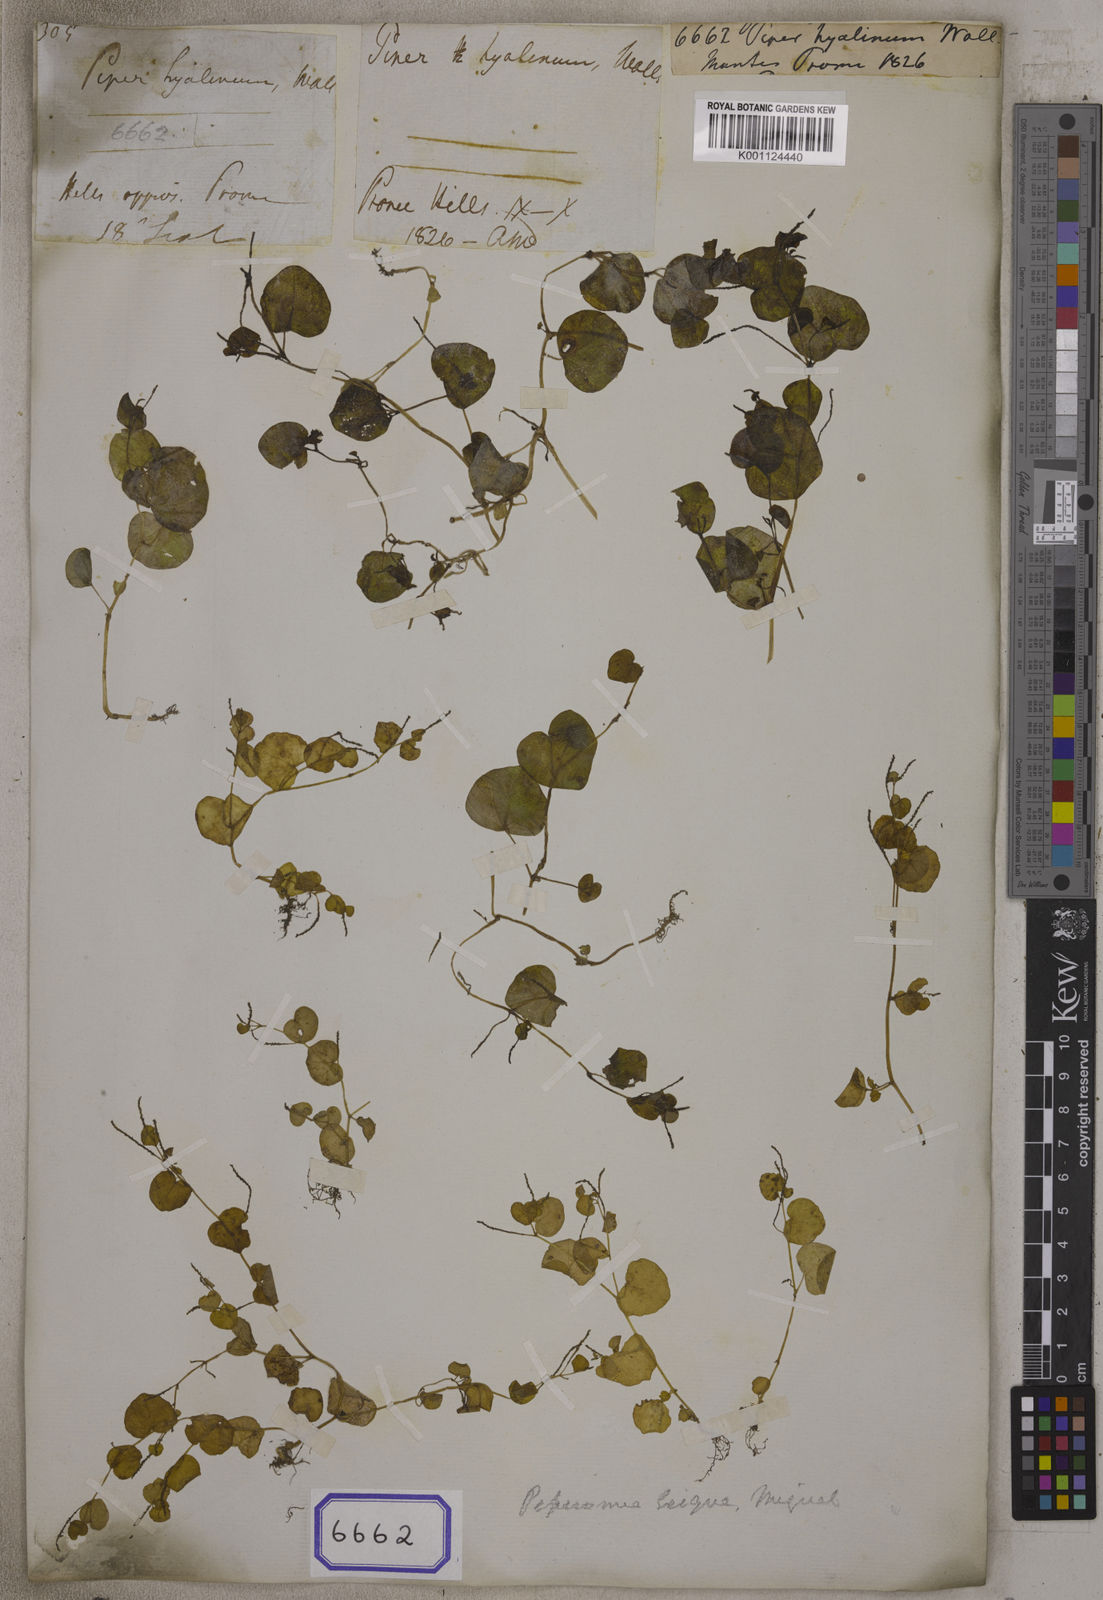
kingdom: Plantae
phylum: Tracheophyta
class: Magnoliopsida
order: Piperales
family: Piperaceae
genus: Peperomia
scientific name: Peperomia pellucida
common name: Man to man
